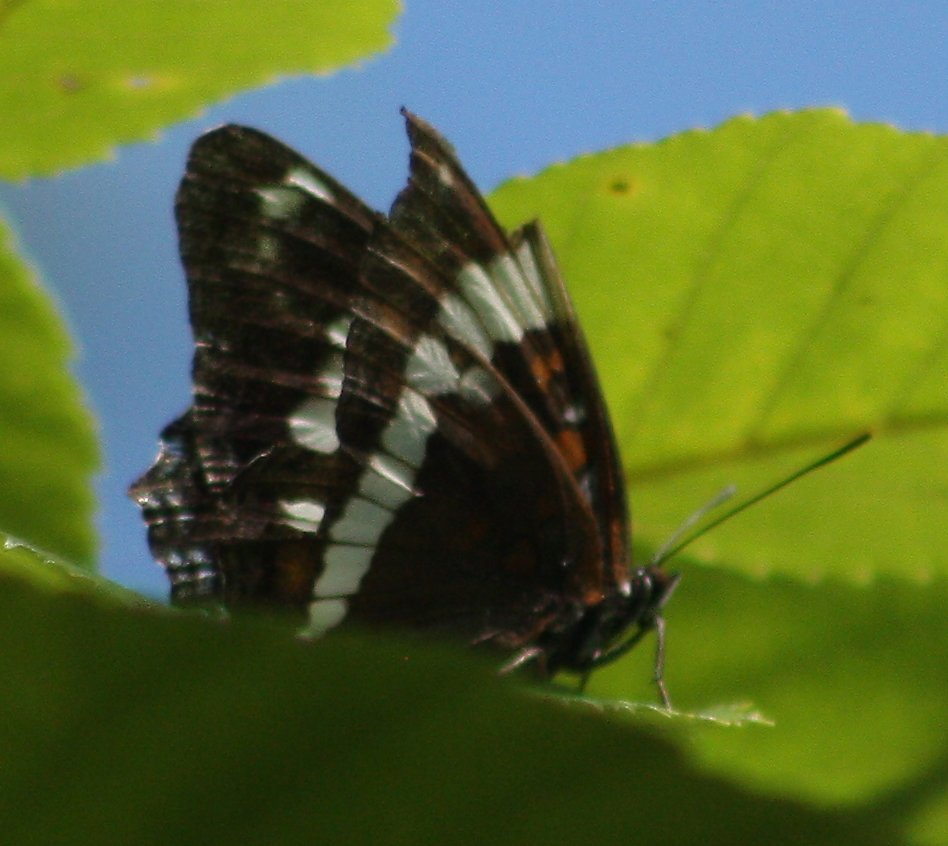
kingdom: Animalia
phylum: Arthropoda
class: Insecta
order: Lepidoptera
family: Nymphalidae
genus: Limenitis
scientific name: Limenitis arthemis
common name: Red-spotted Admiral
